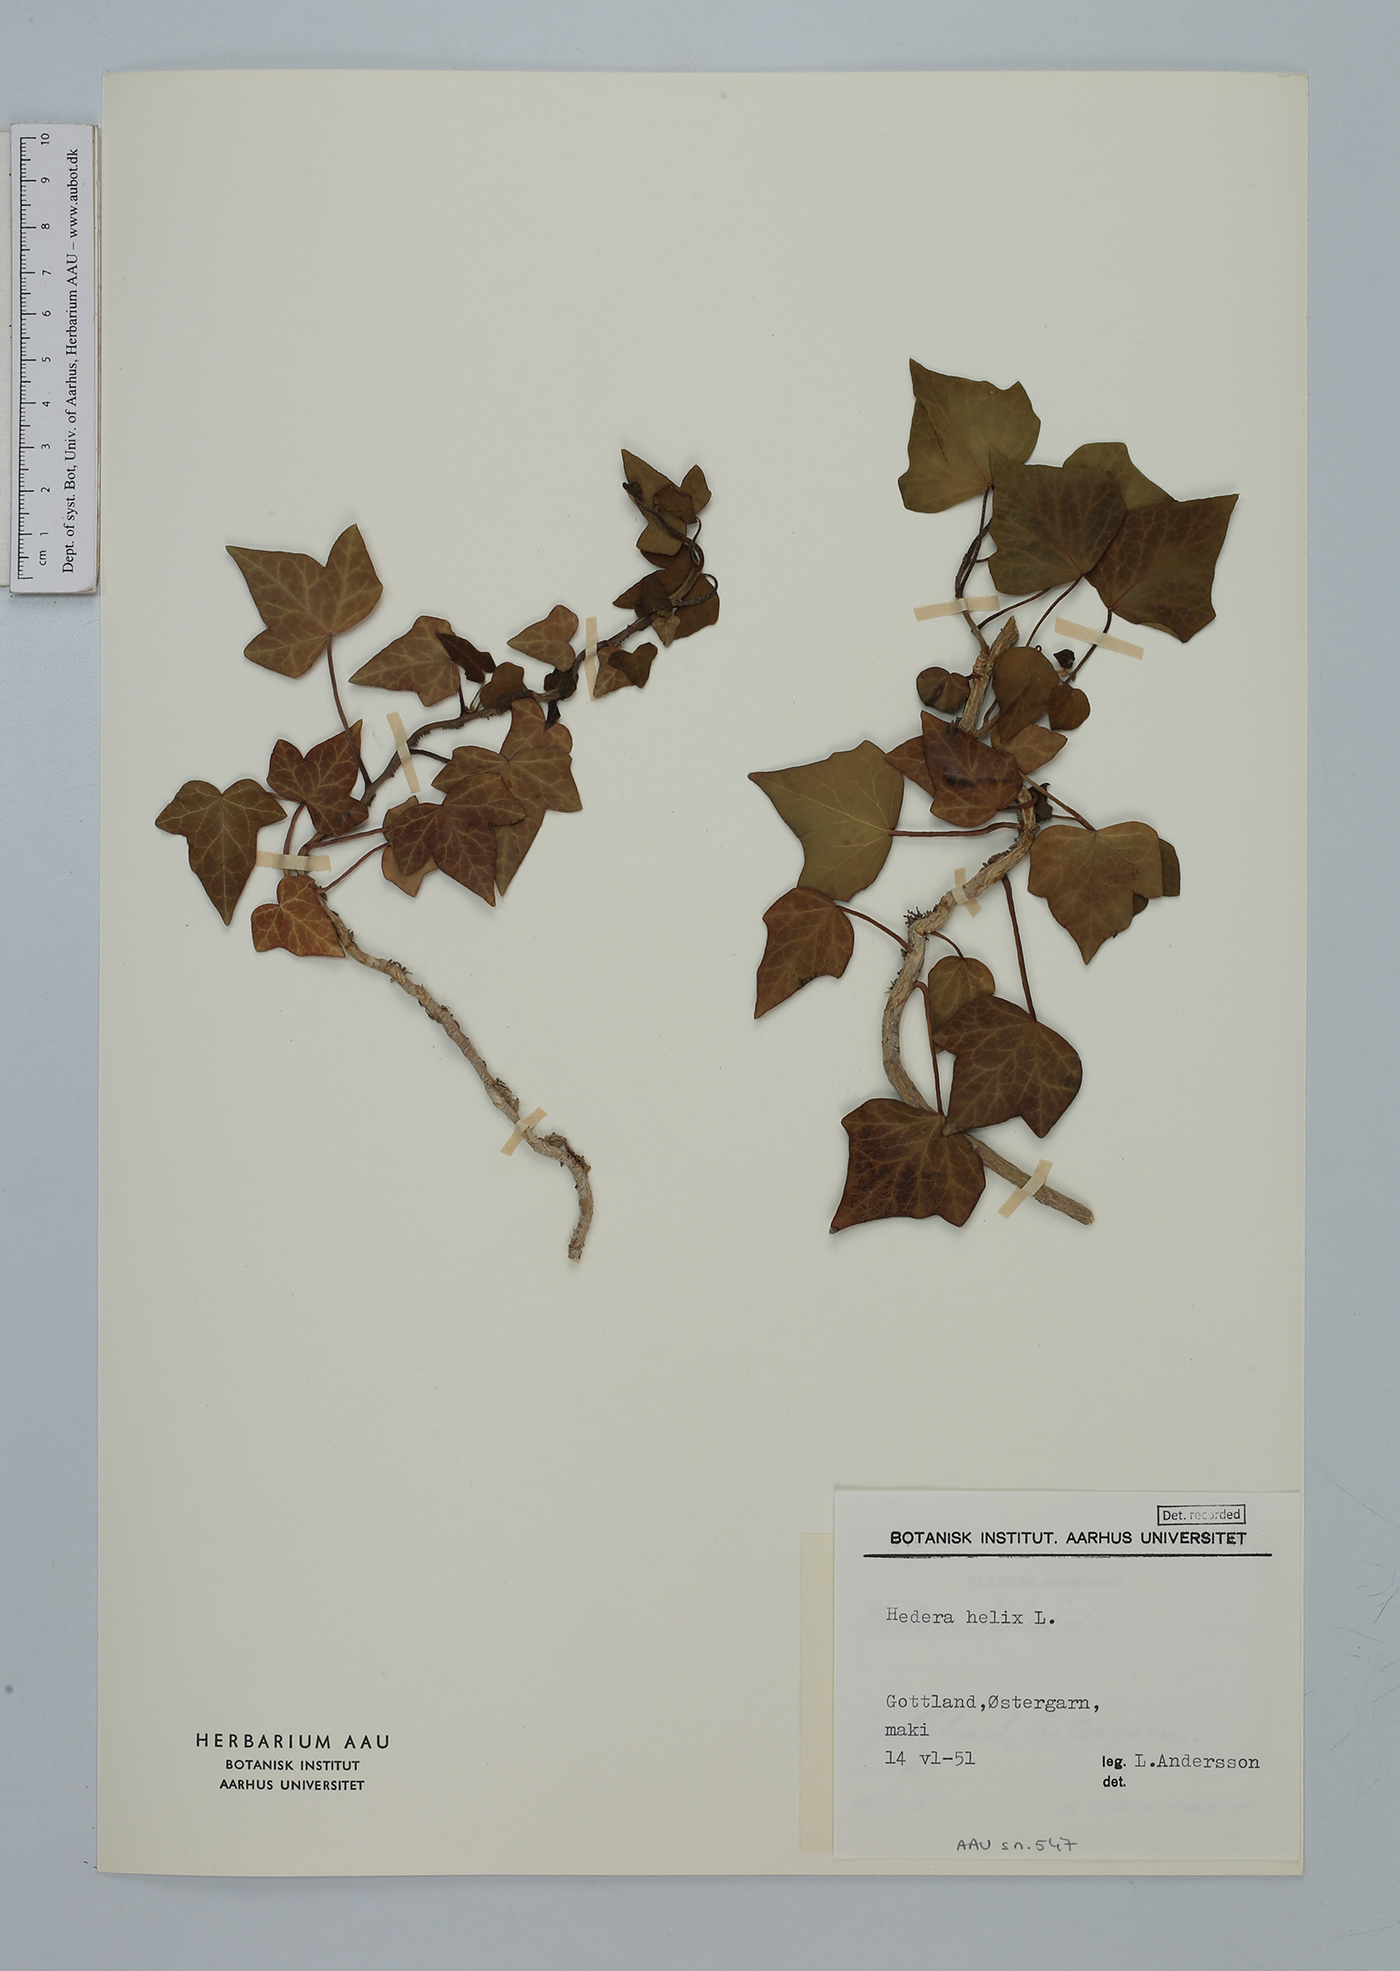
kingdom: Plantae
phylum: Tracheophyta
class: Magnoliopsida
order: Apiales
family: Araliaceae
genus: Hedera
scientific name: Hedera helix
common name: Ivy
